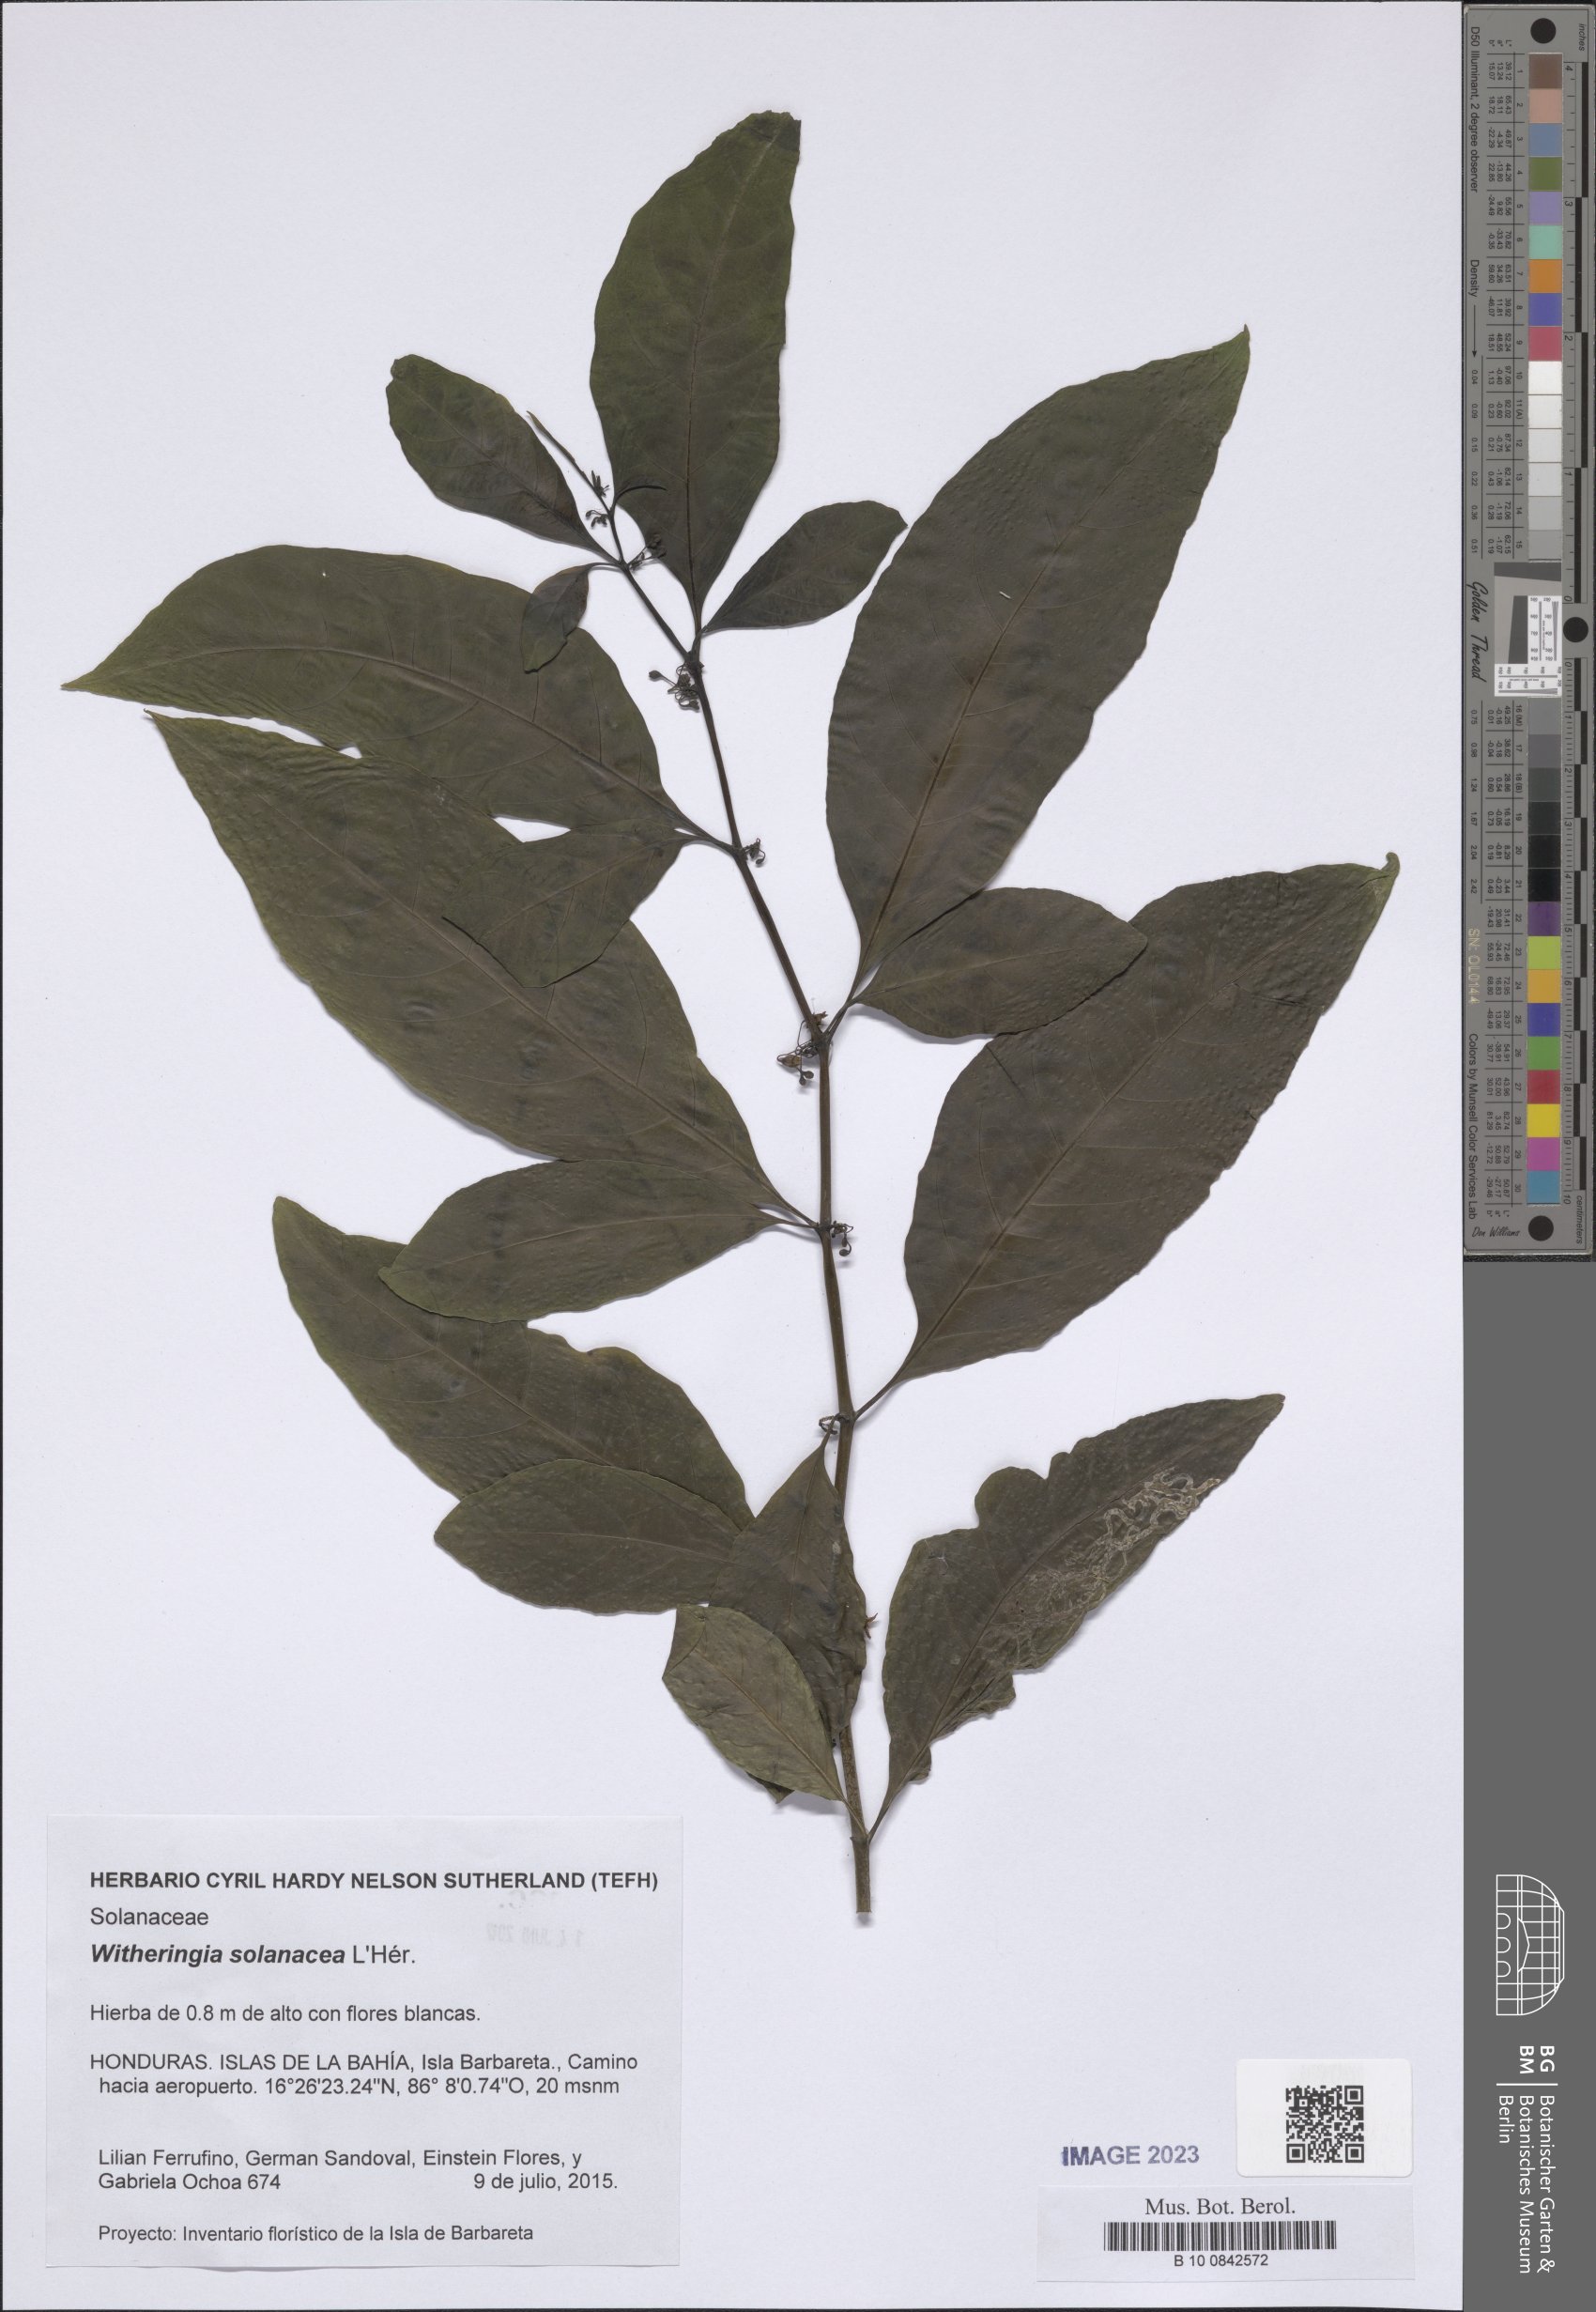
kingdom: Plantae
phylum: Tracheophyta
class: Magnoliopsida
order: Solanales
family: Solanaceae
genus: Witheringia
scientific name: Witheringia solanacea
